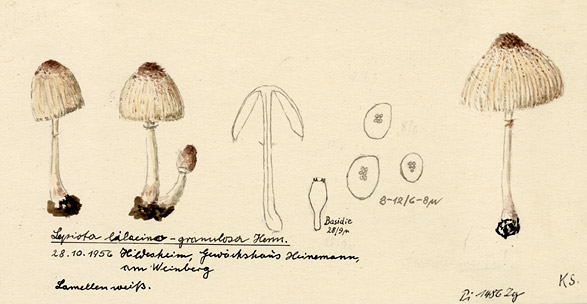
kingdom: Fungi
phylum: Basidiomycota
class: Agaricomycetes
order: Agaricales
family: Agaricaceae
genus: Leucocoprinus
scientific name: Leucocoprinus ianthinus
